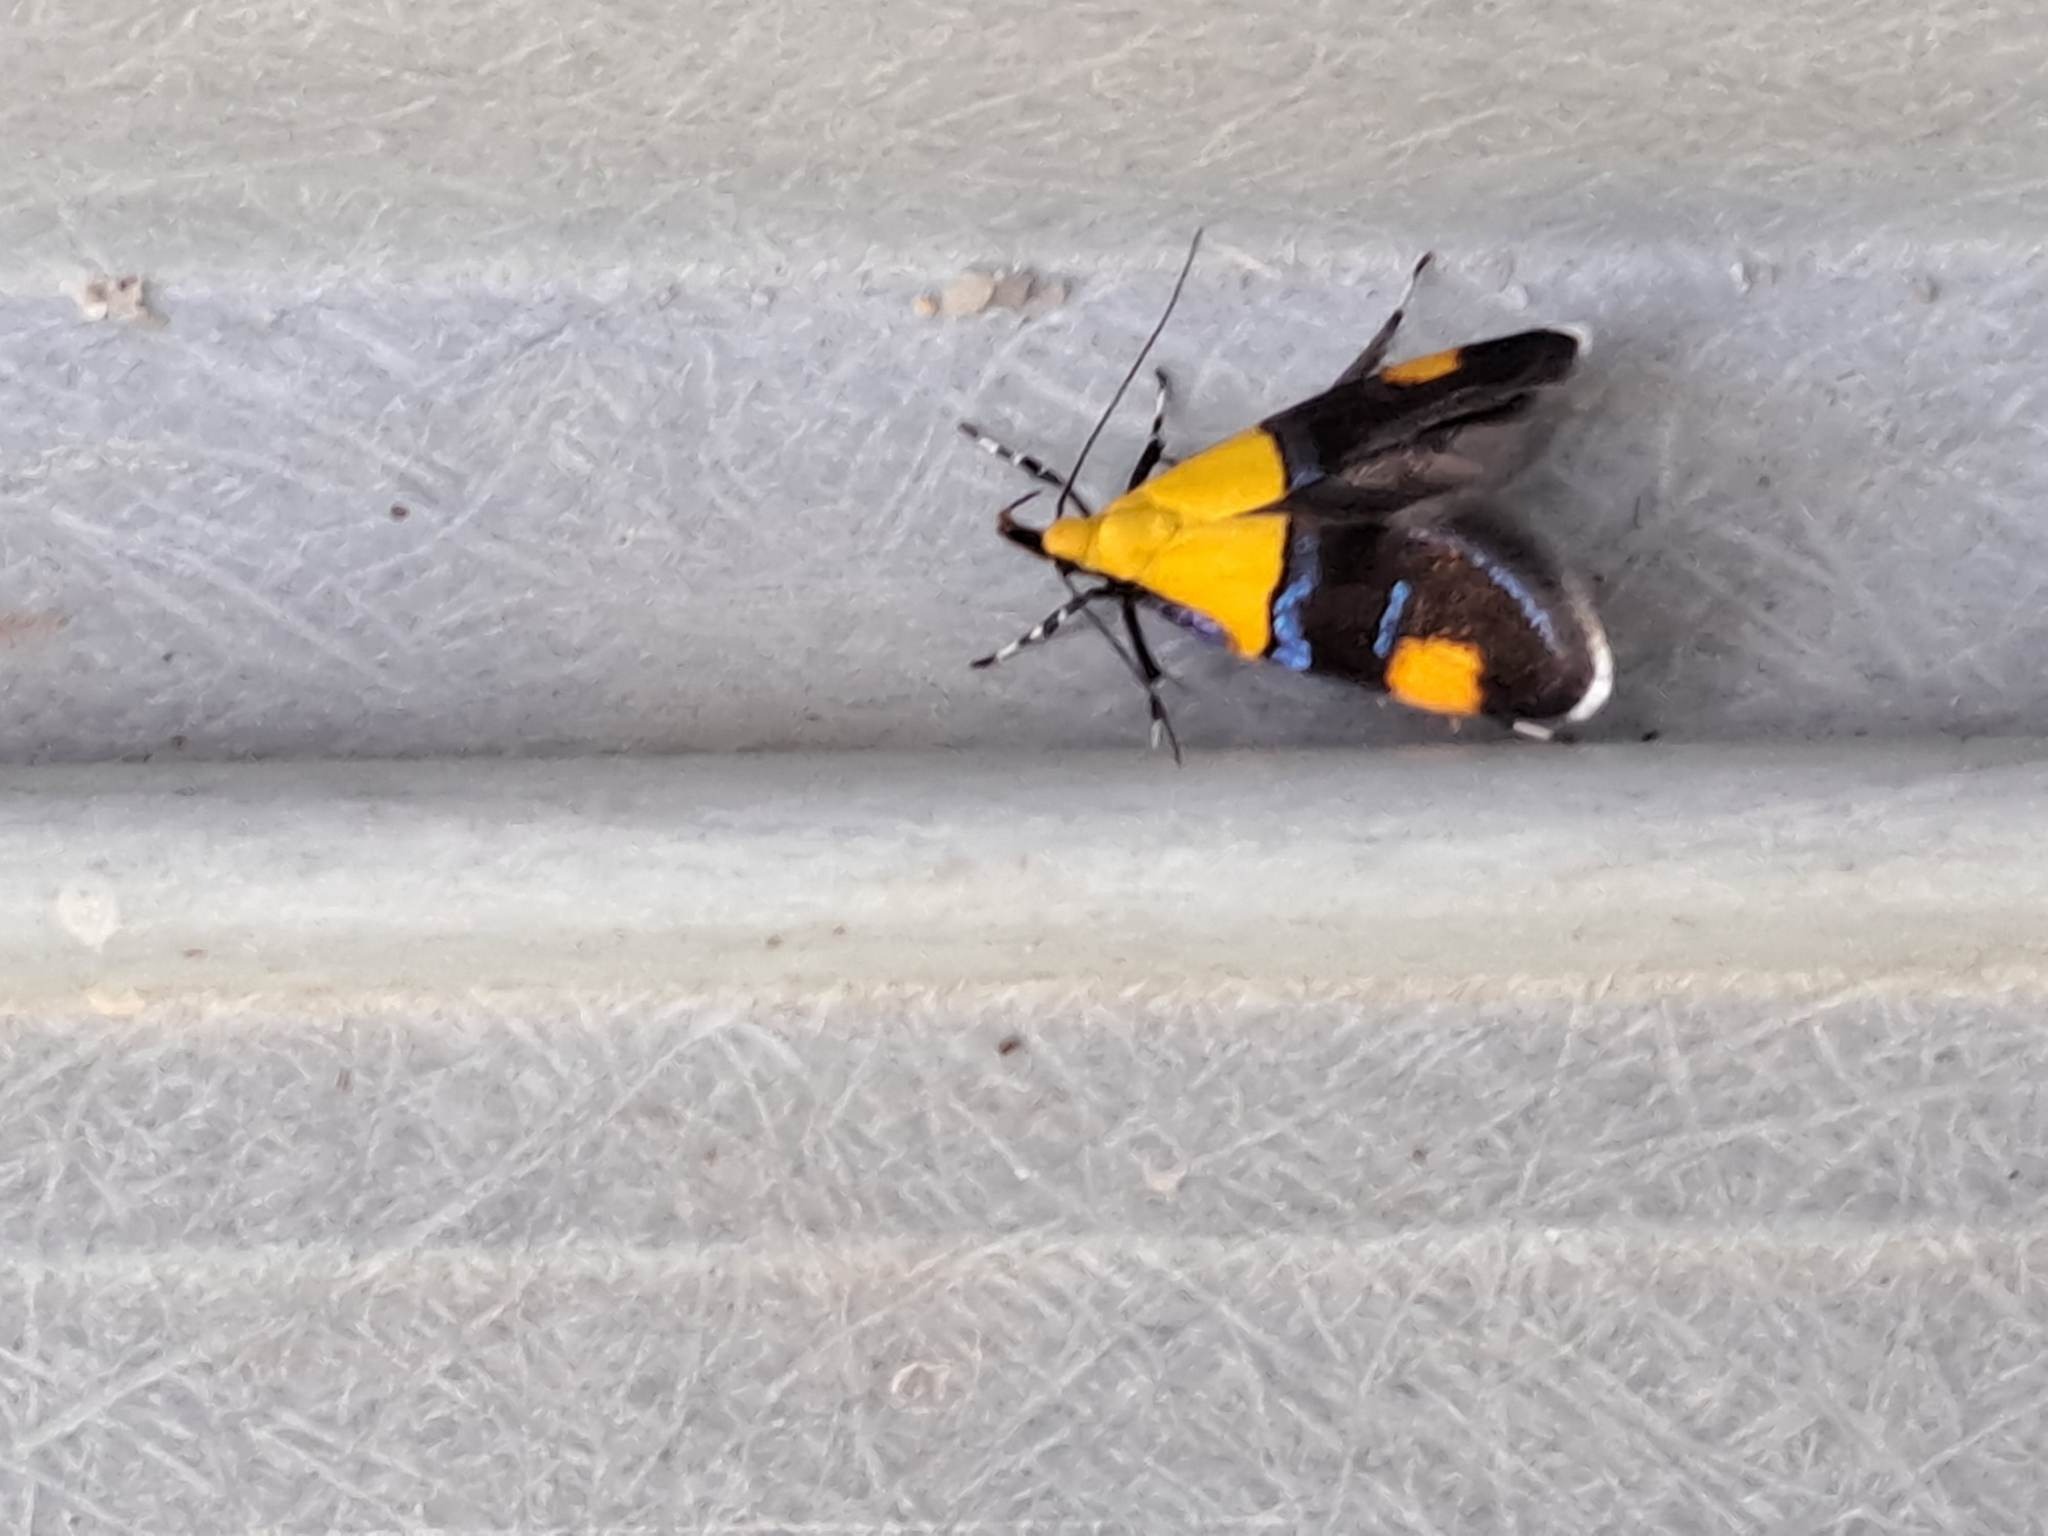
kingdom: Animalia
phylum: Arthropoda
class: Insecta
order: Lepidoptera
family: Oecophoridae
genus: Oecophora
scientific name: Oecophora bractella
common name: Tofarvet prydvinge
